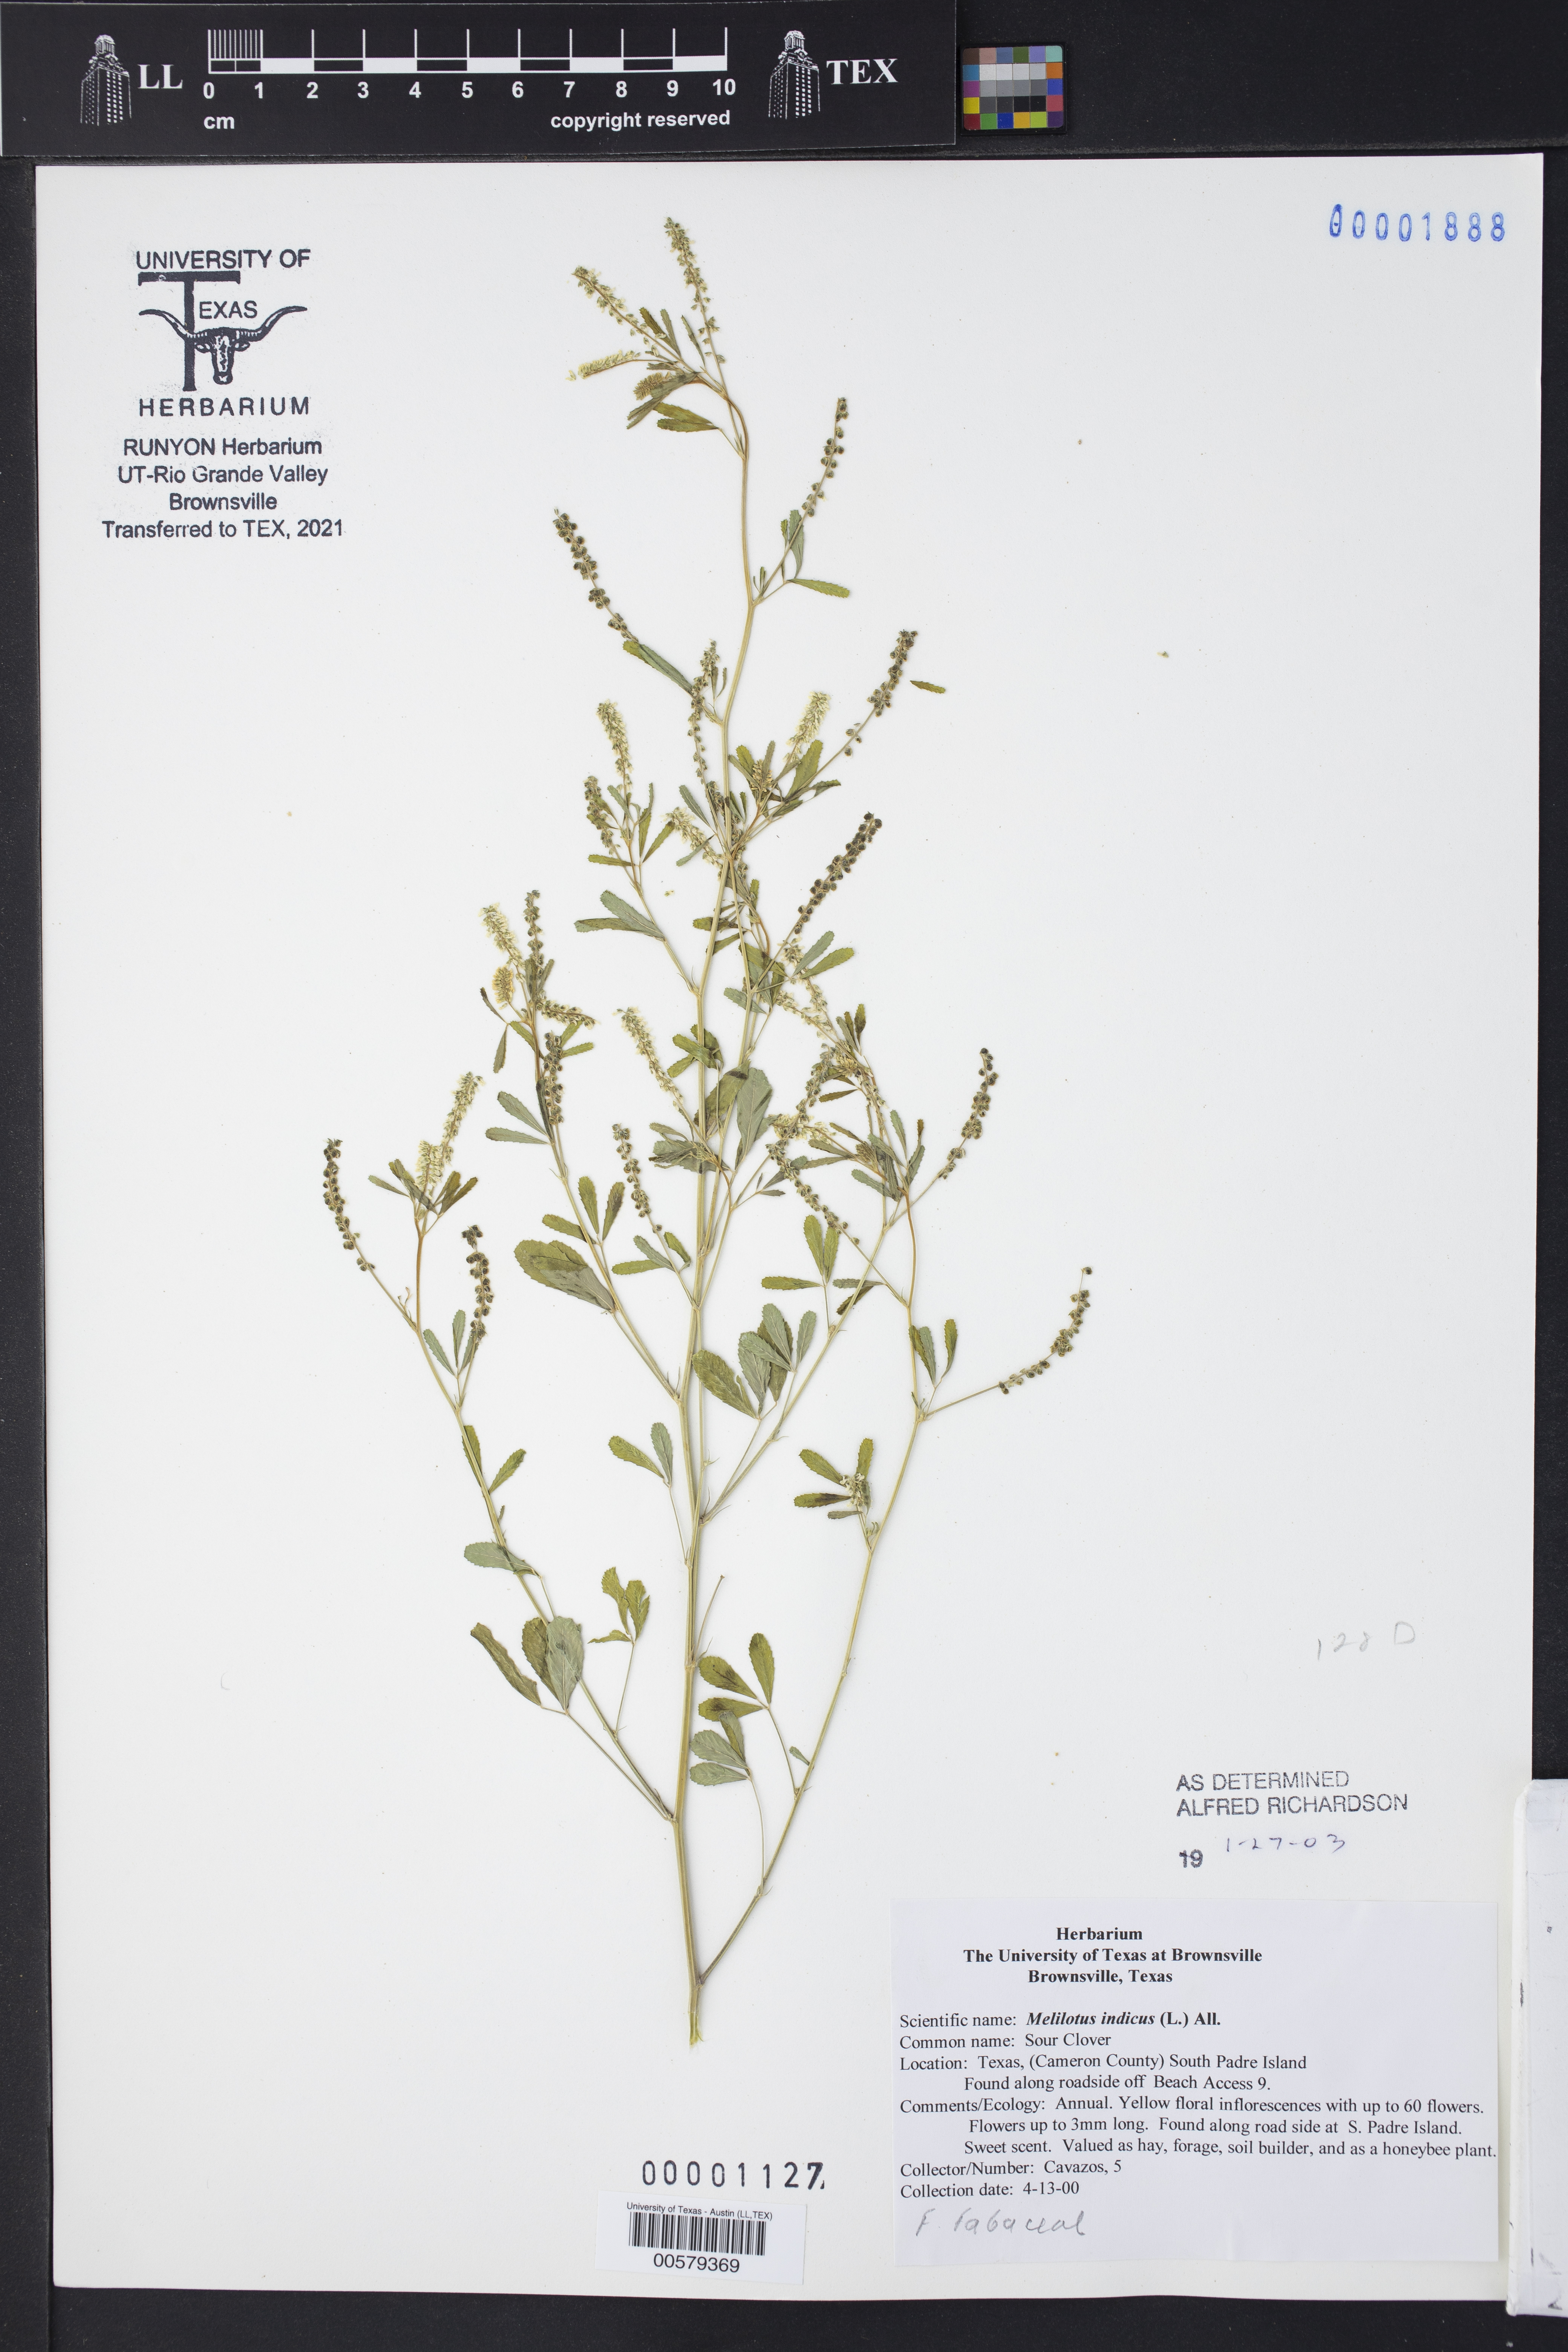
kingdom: Plantae
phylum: Tracheophyta
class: Magnoliopsida
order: Fabales
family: Fabaceae
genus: Melilotus
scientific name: Melilotus indicus
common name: Small melilot
